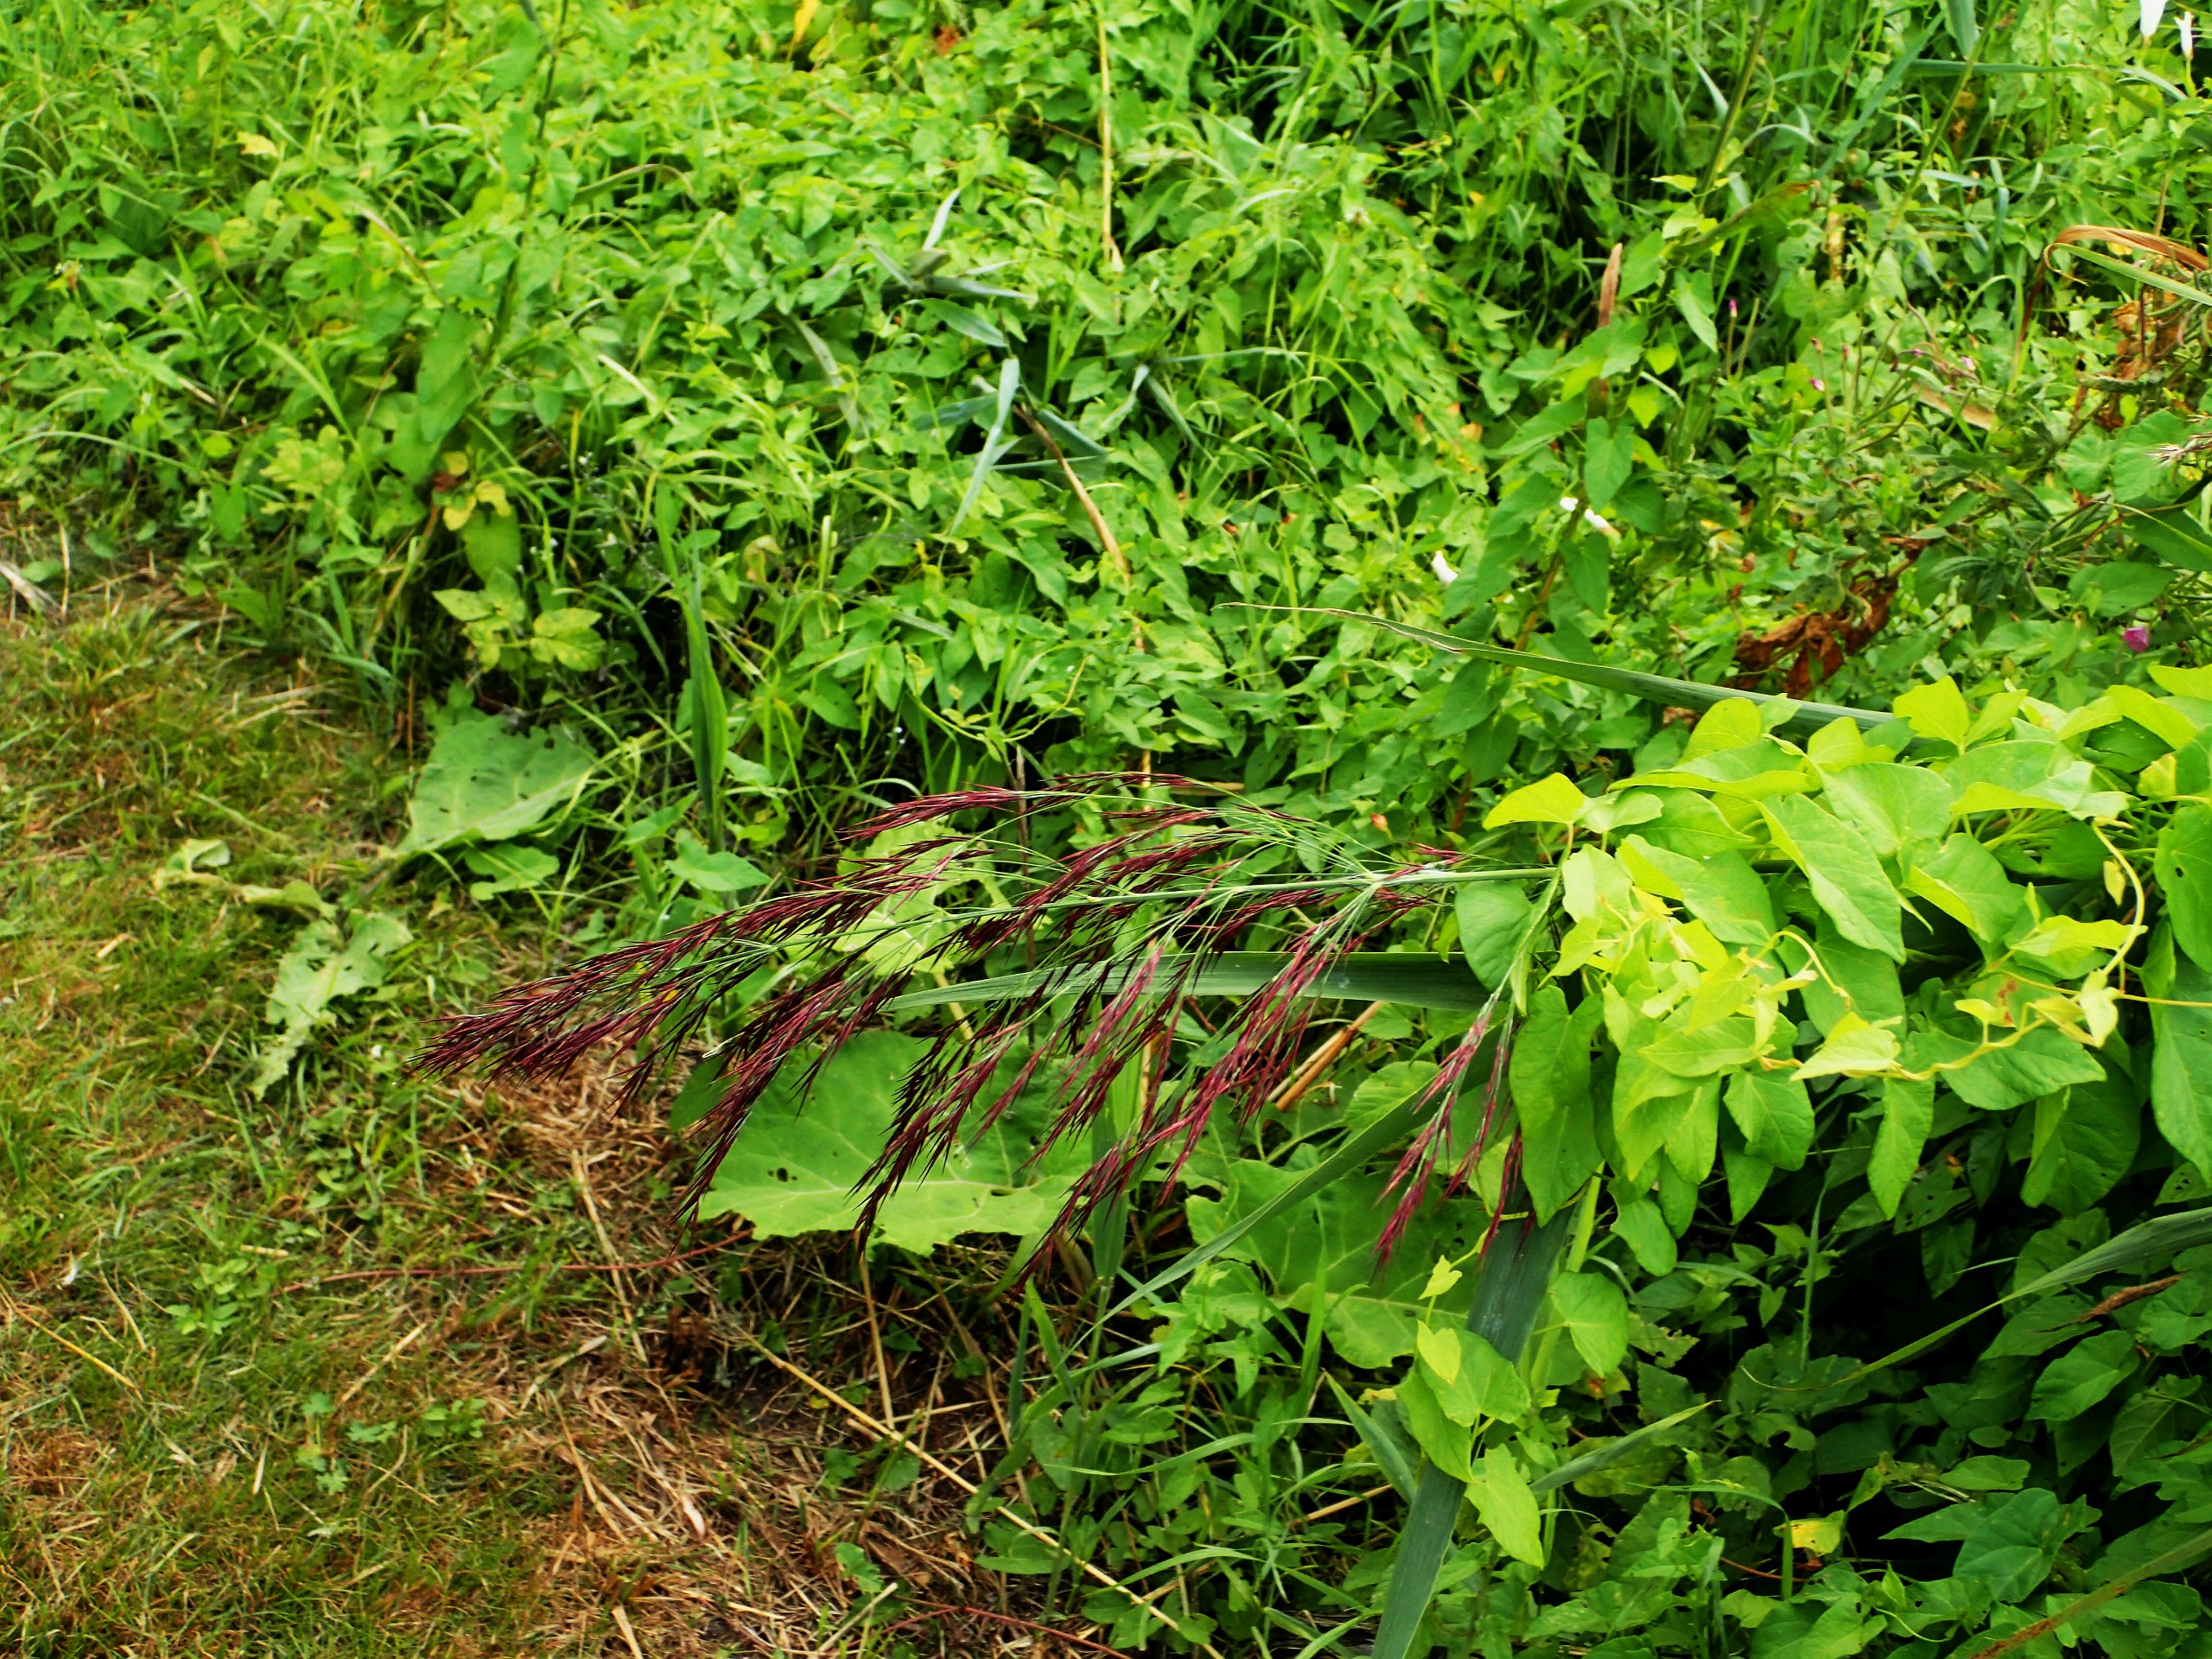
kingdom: Plantae
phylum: Tracheophyta
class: Liliopsida
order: Poales
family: Poaceae
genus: Phragmites
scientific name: Phragmites australis
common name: Tagrør
